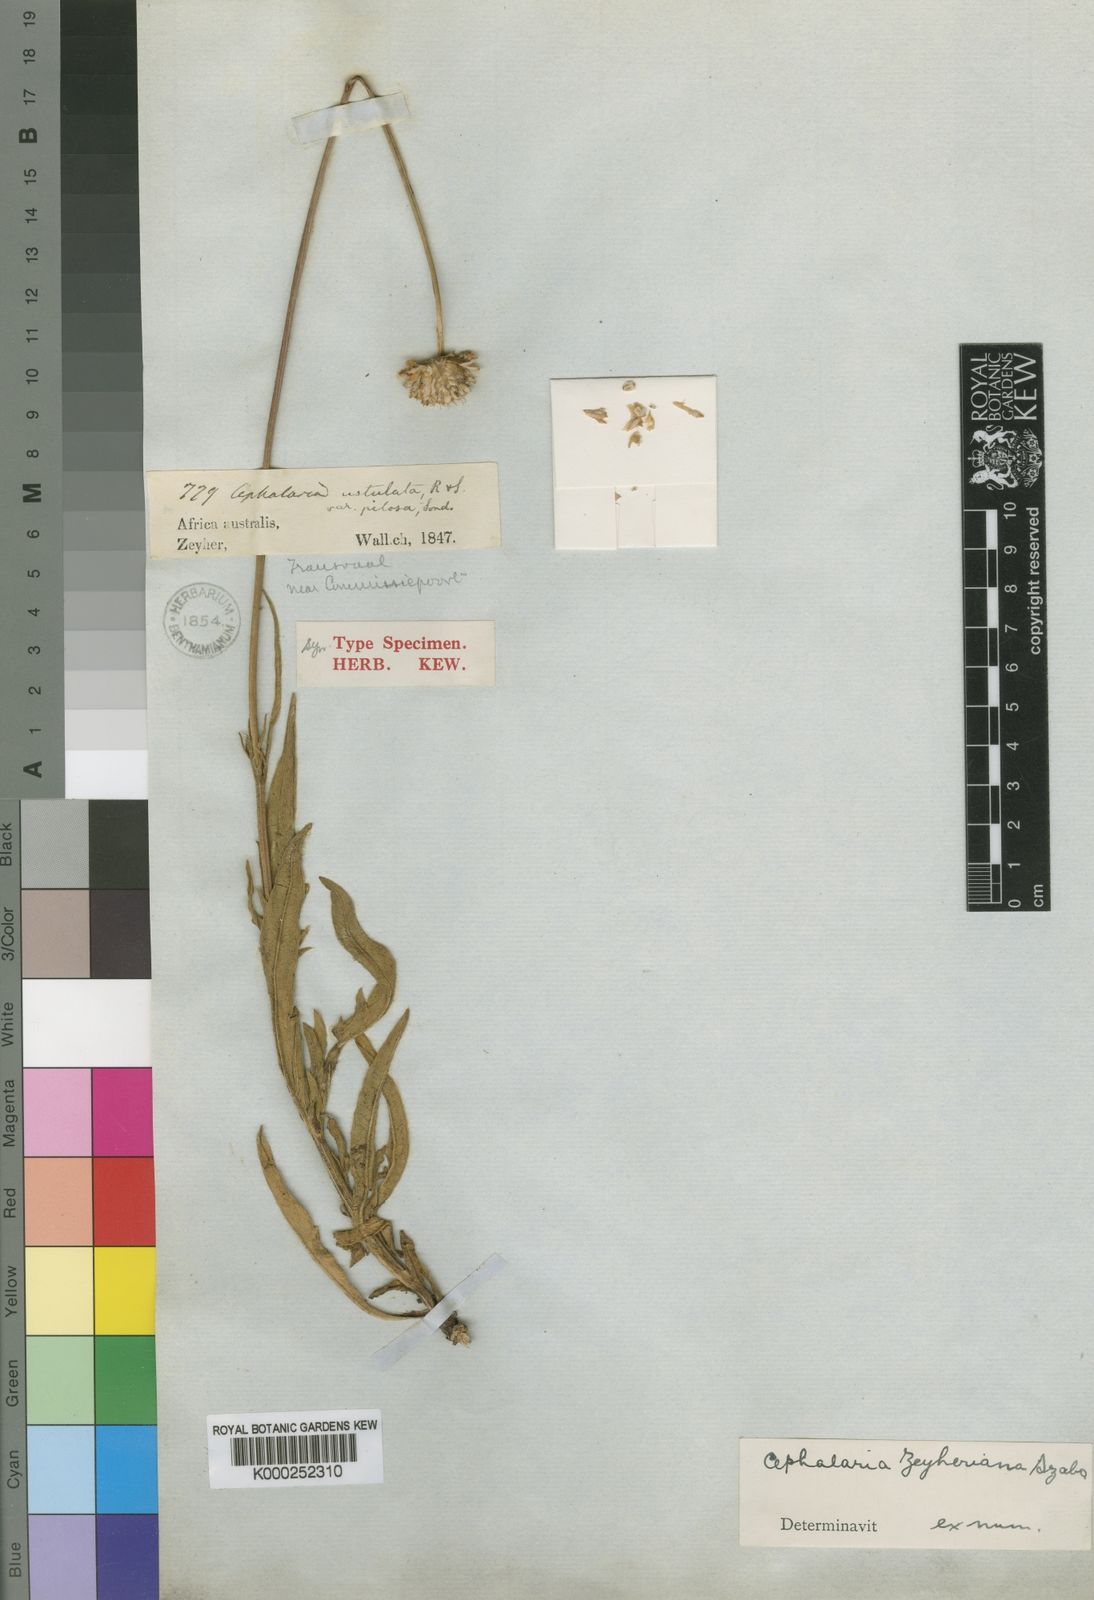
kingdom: Plantae
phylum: Tracheophyta
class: Magnoliopsida
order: Dipsacales
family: Caprifoliaceae
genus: Cephalaria
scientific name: Cephalaria zeyheriana
